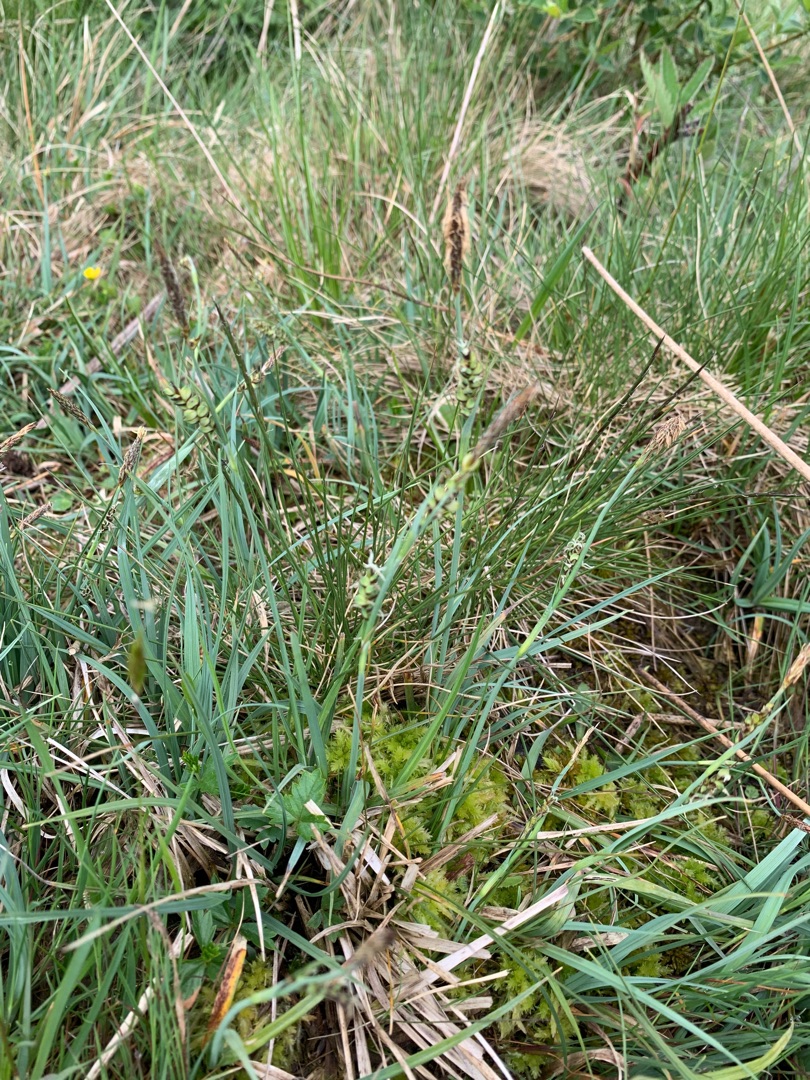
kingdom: Plantae
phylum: Tracheophyta
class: Liliopsida
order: Poales
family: Cyperaceae
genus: Carex
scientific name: Carex panicea
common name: Hirse-star
